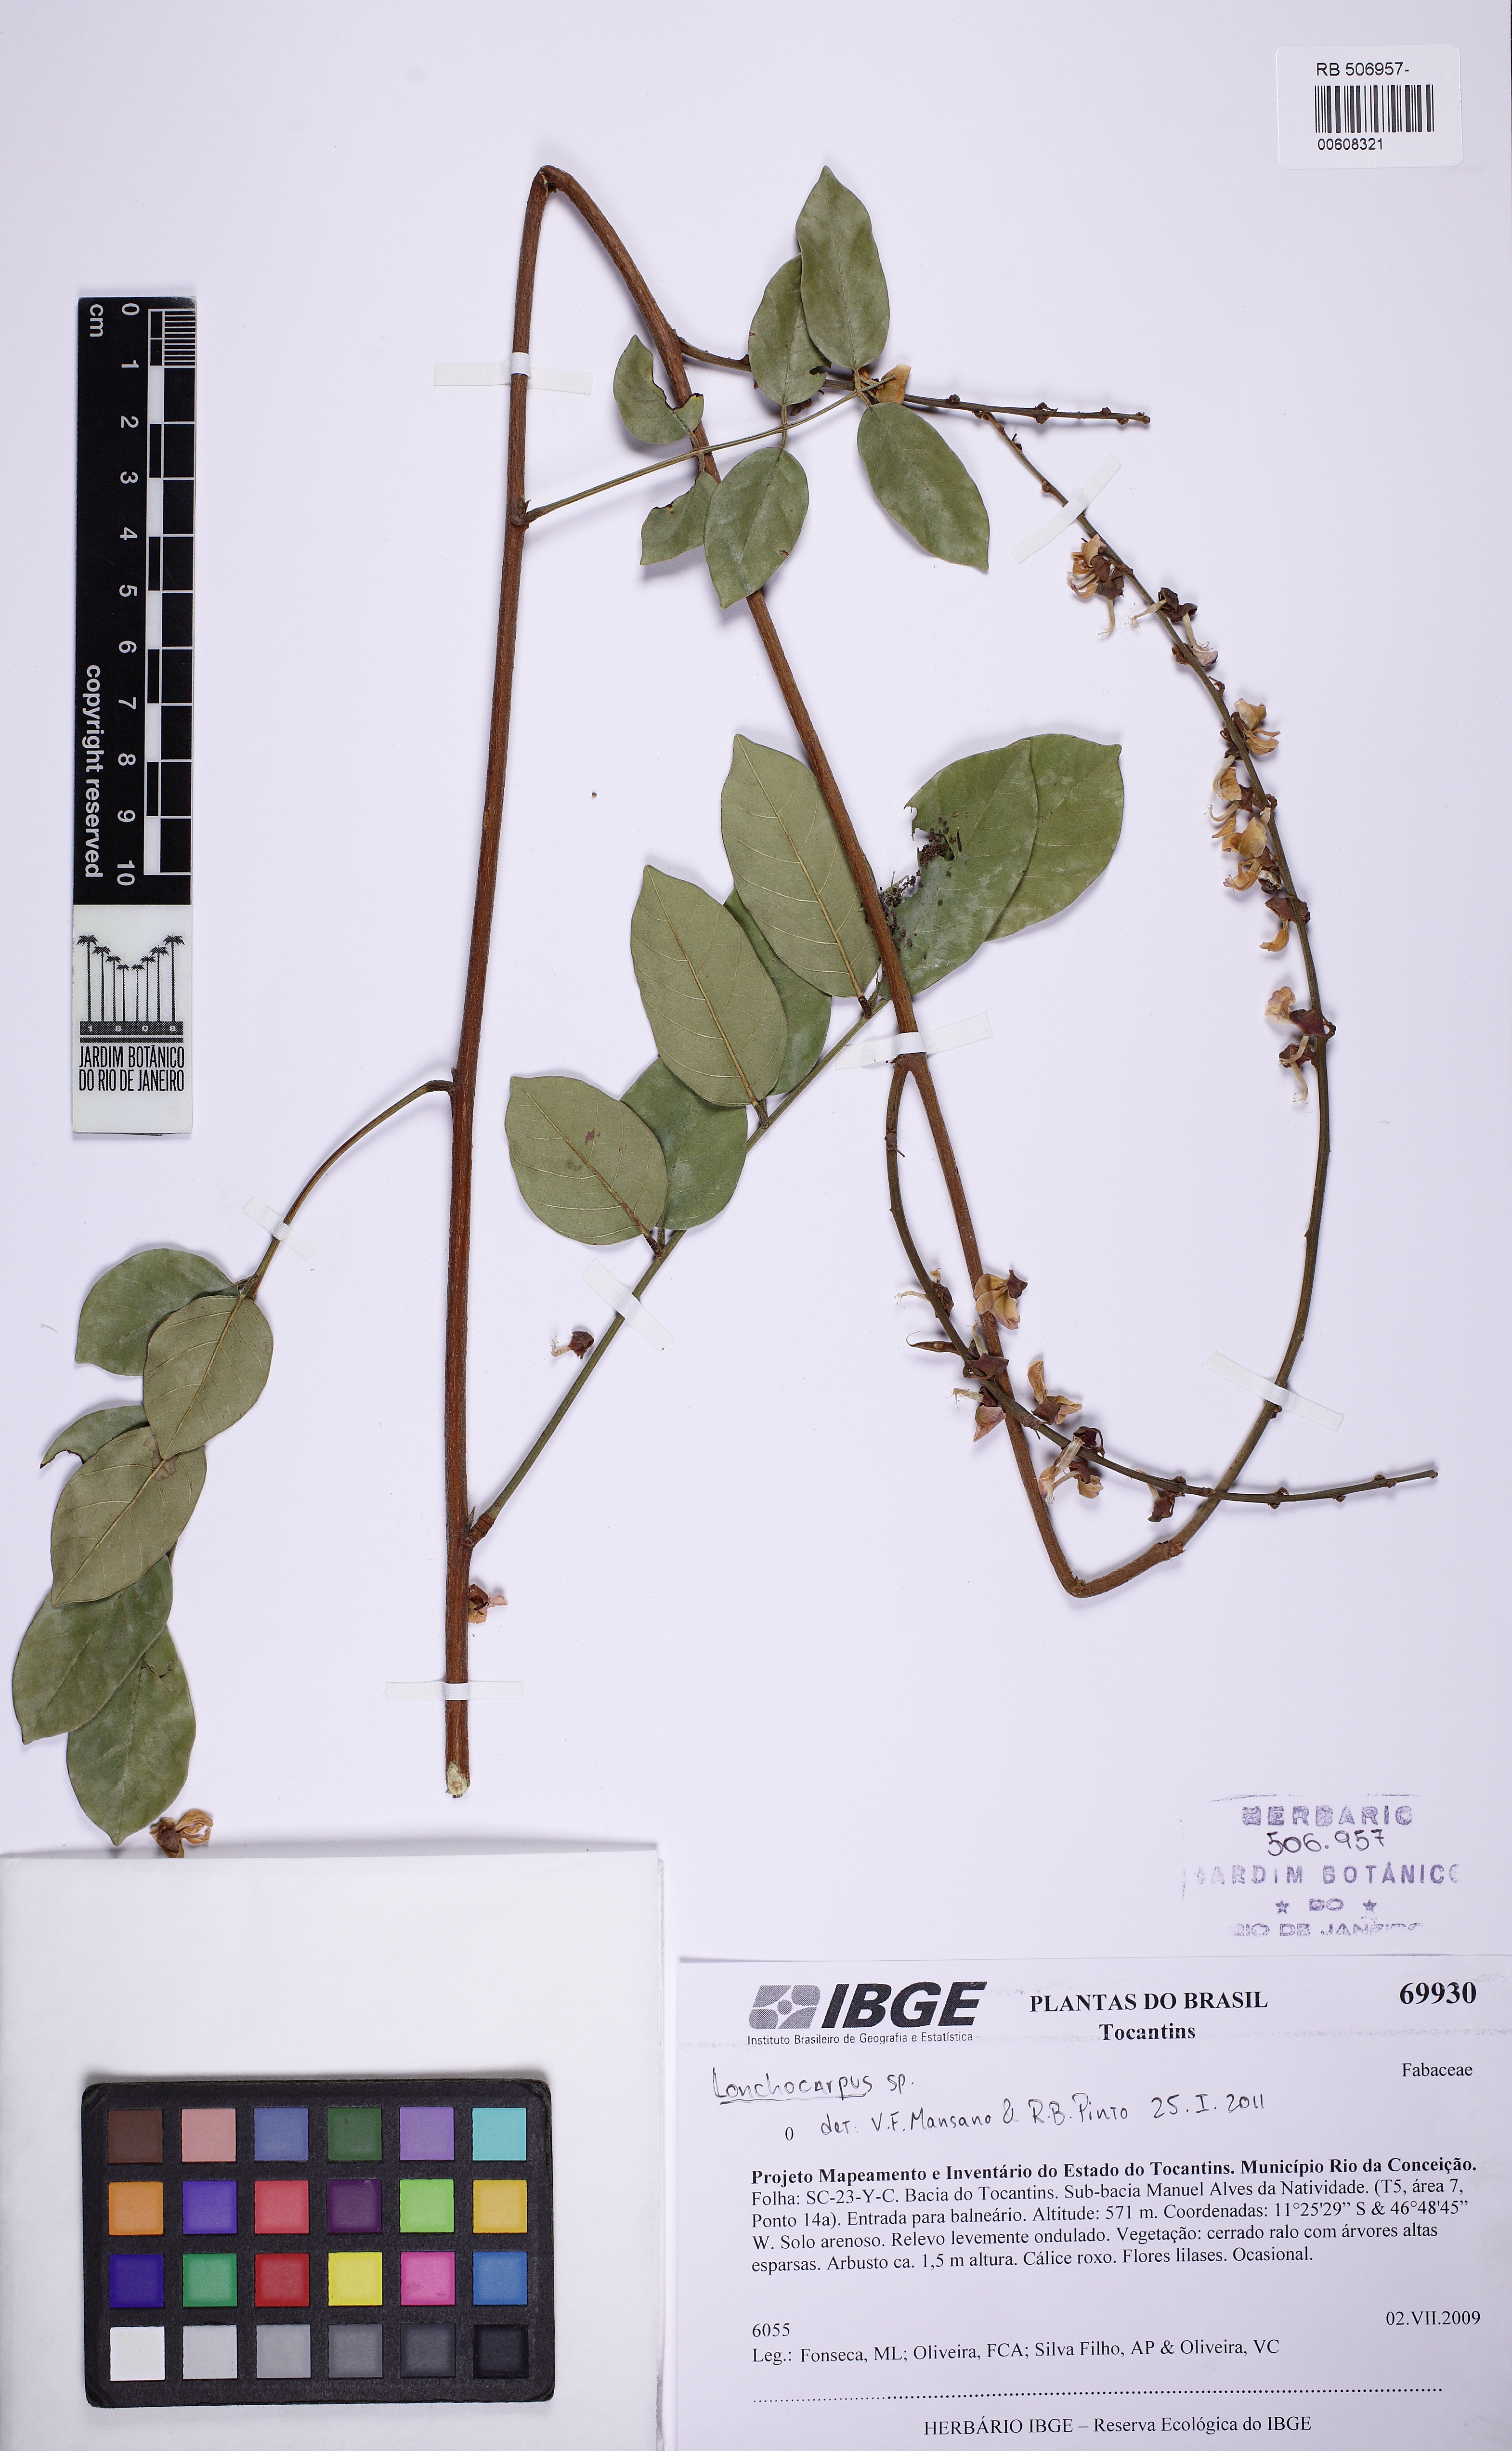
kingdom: Plantae
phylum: Tracheophyta
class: Magnoliopsida
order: Fabales
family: Fabaceae
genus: Deguelia
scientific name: Deguelia nitidula
